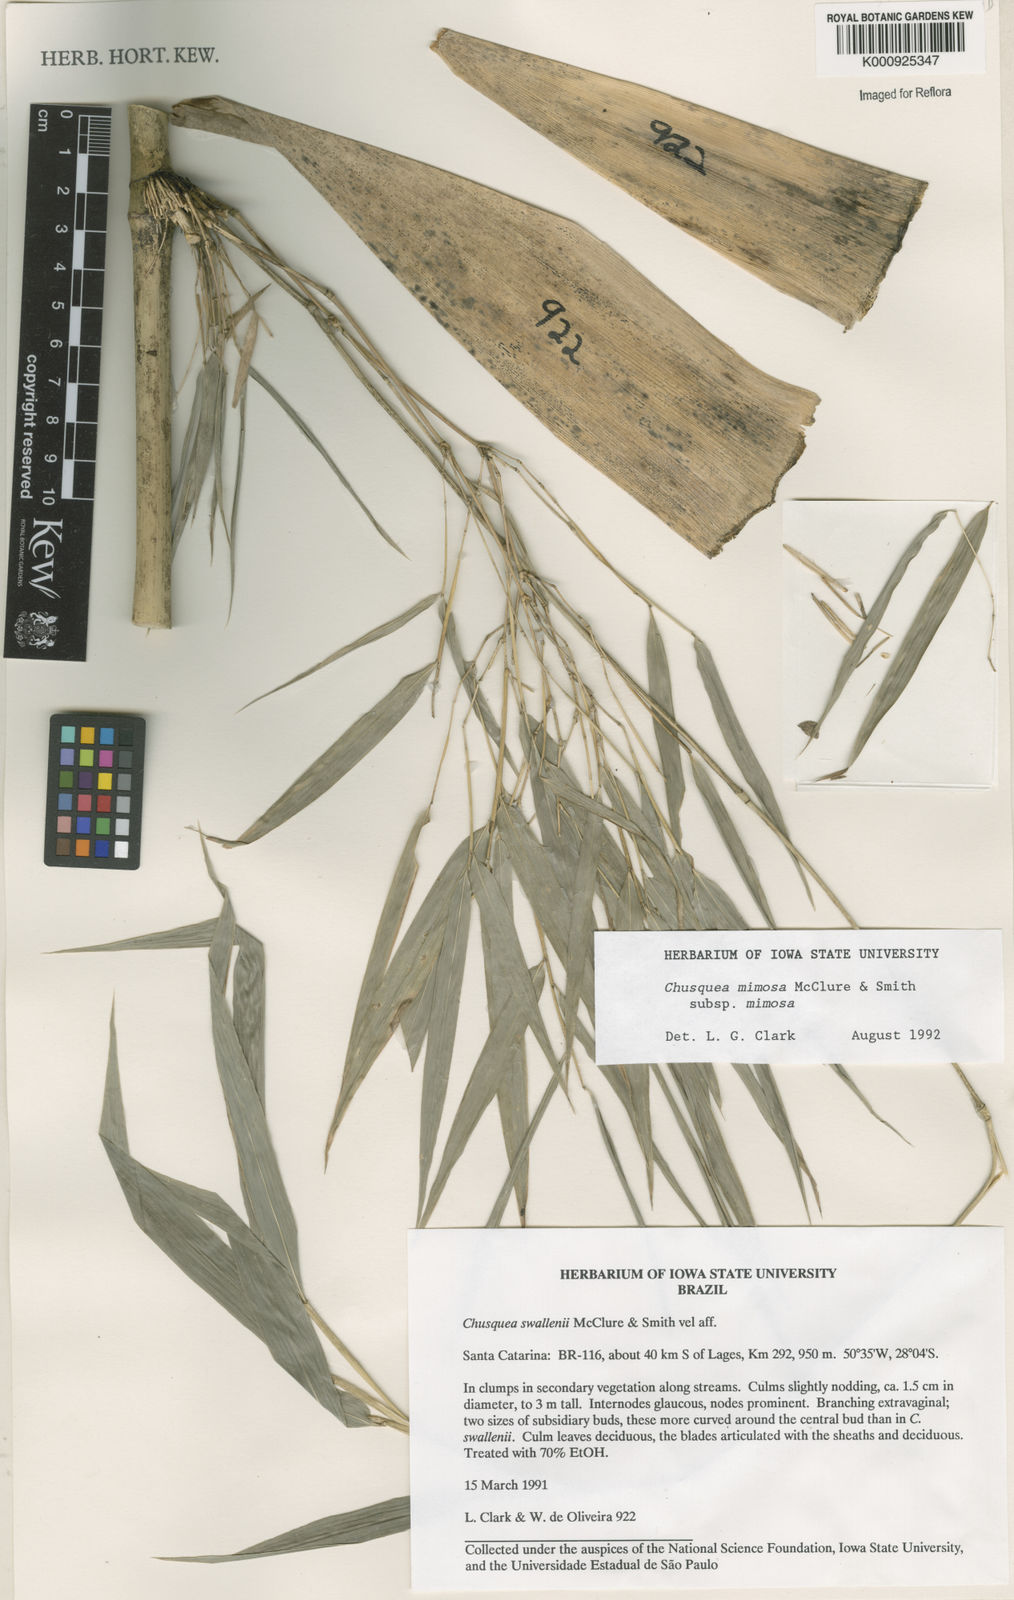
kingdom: Plantae
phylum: Tracheophyta
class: Liliopsida
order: Poales
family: Poaceae
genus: Chusquea
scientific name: Chusquea mimosa
